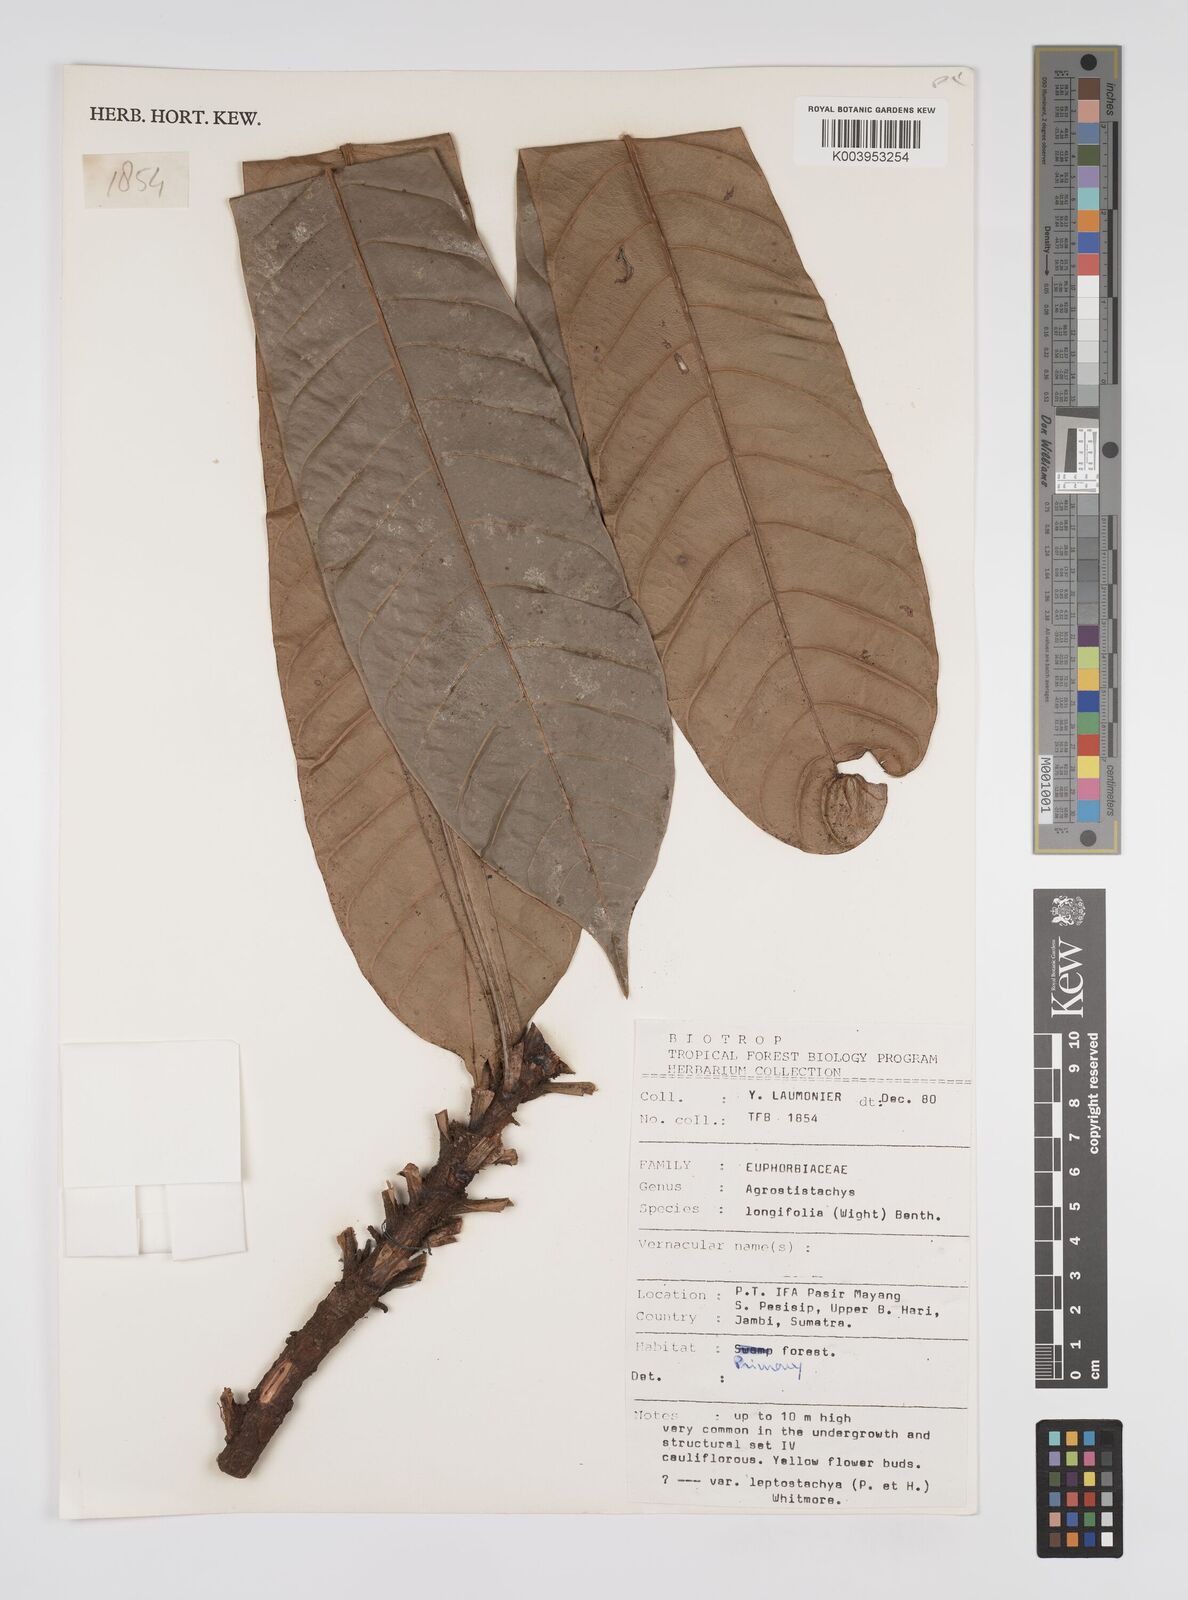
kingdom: Plantae
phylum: Tracheophyta
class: Magnoliopsida
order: Malpighiales
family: Euphorbiaceae
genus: Agrostistachys
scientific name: Agrostistachys borneensis
